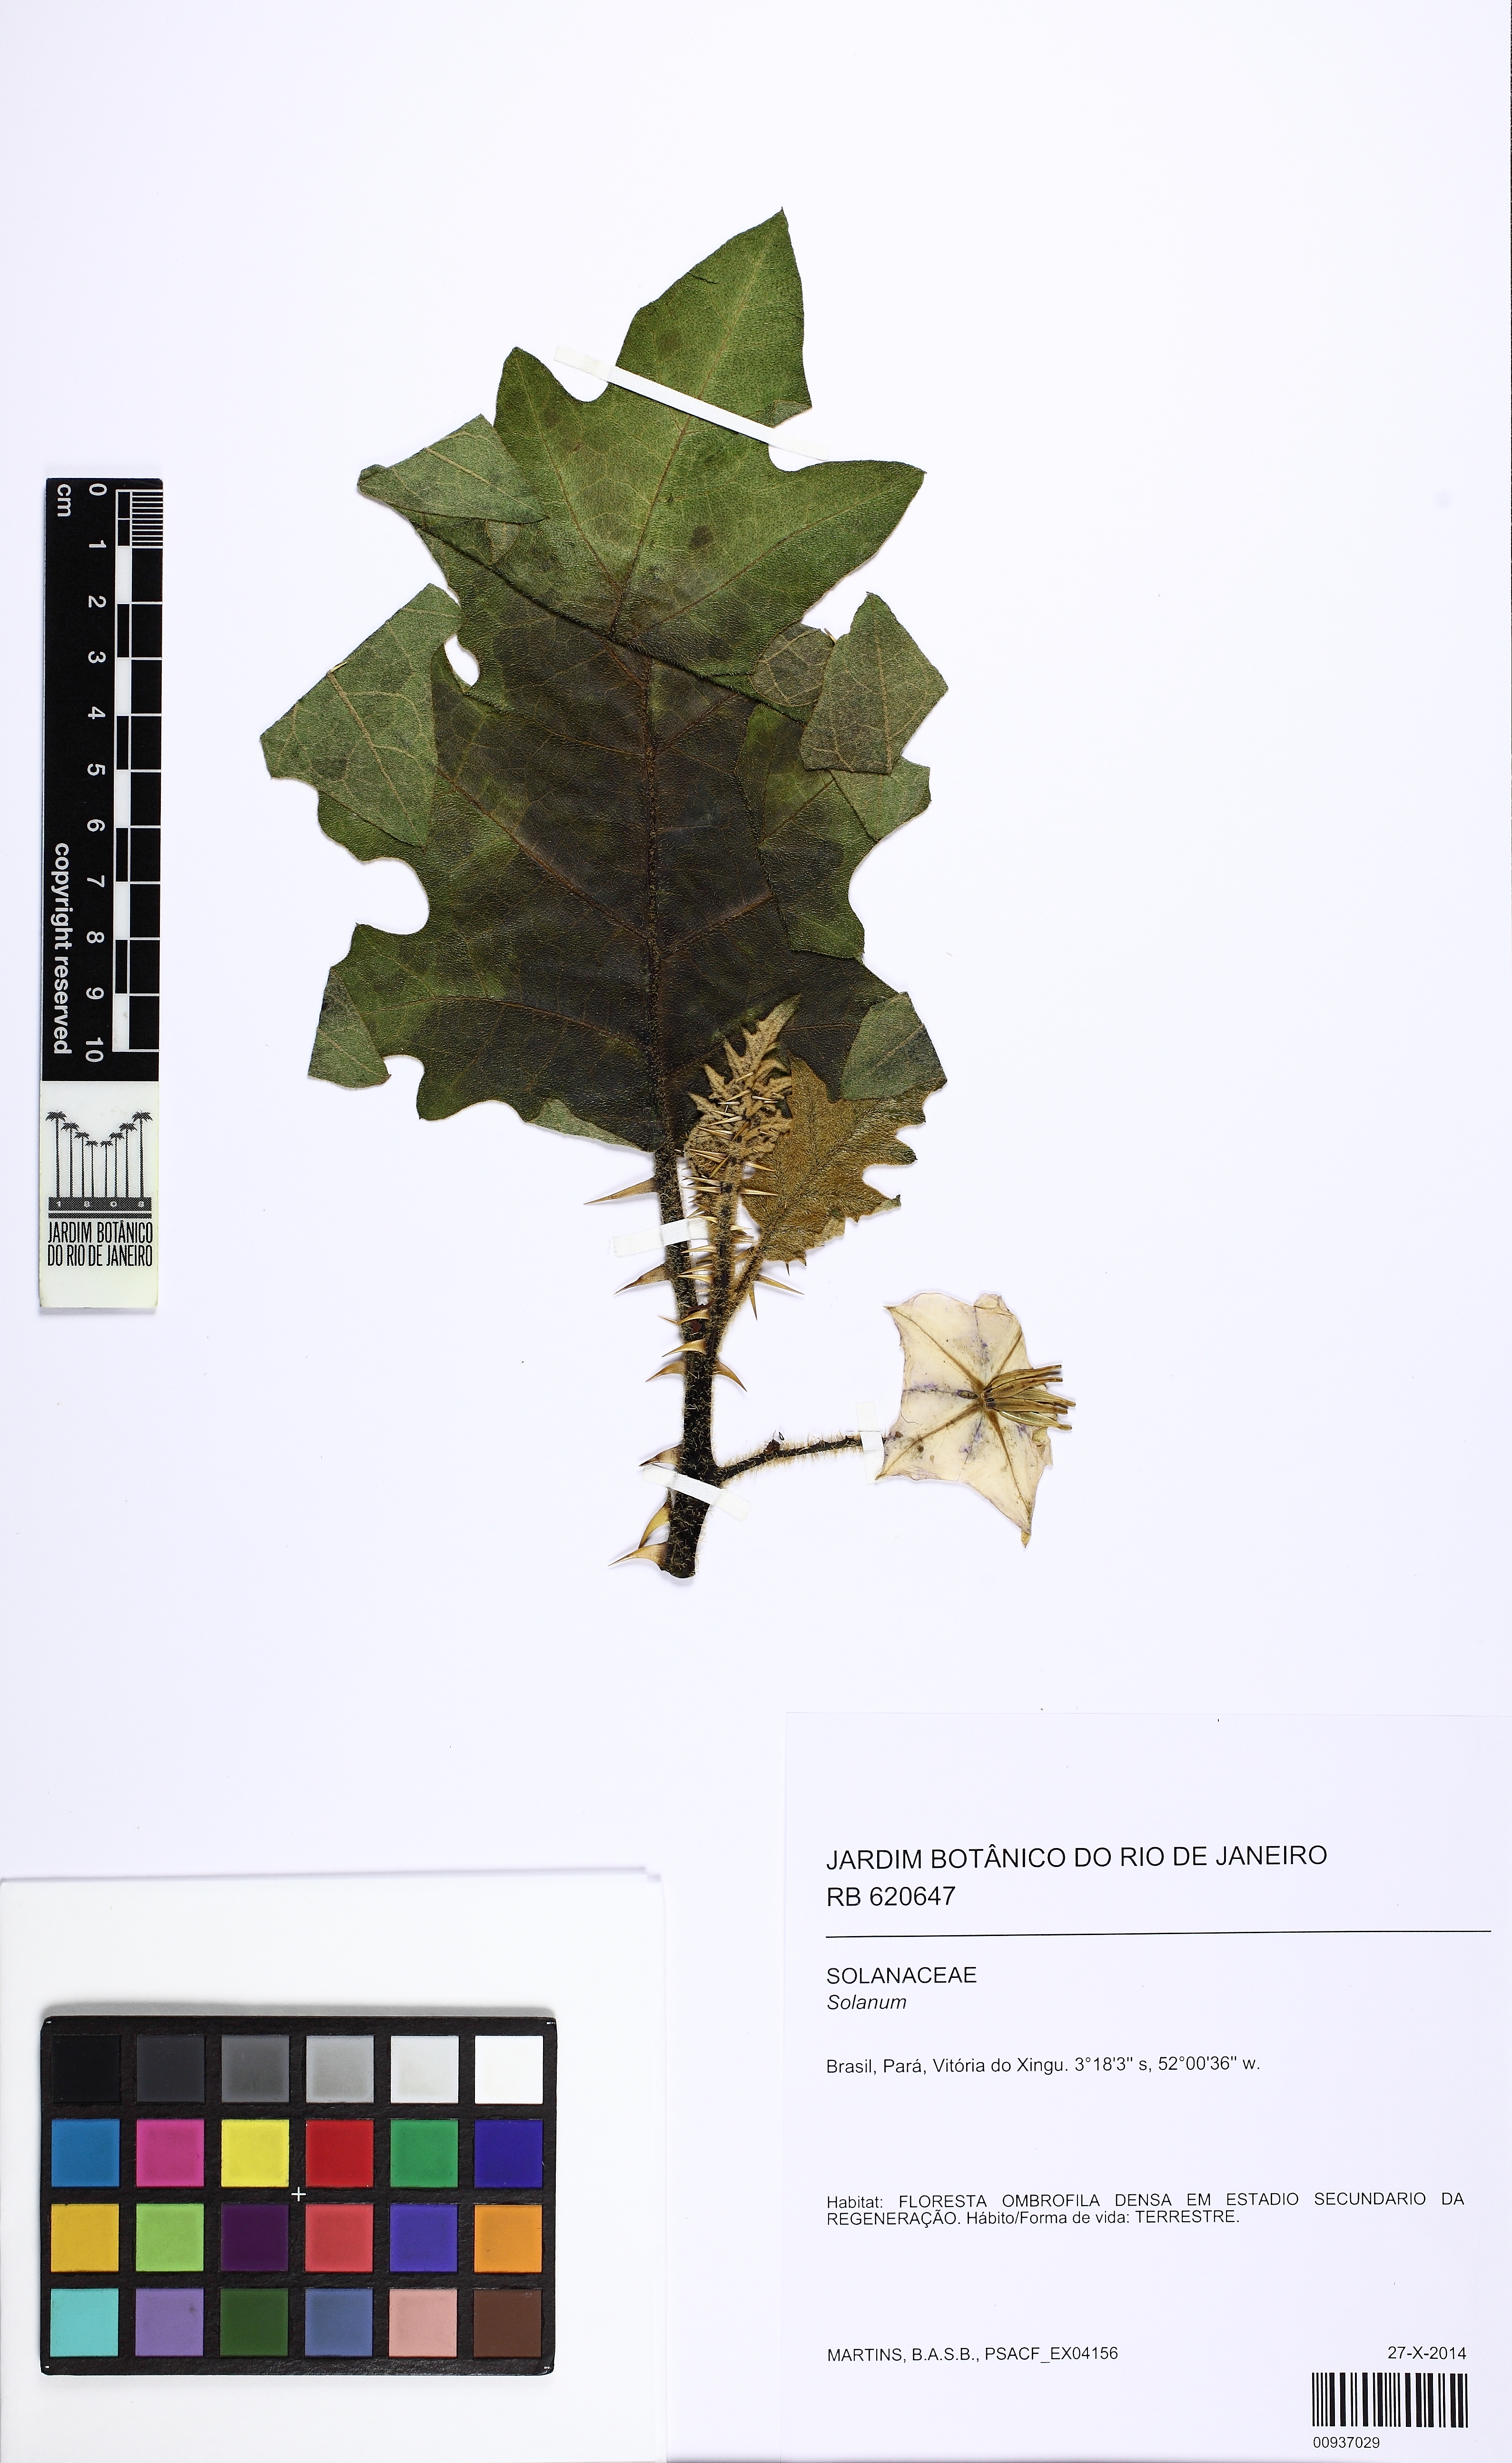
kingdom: Plantae
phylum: Tracheophyta
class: Magnoliopsida
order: Solanales
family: Solanaceae
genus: Solanum
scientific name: Solanum vanheurckii
